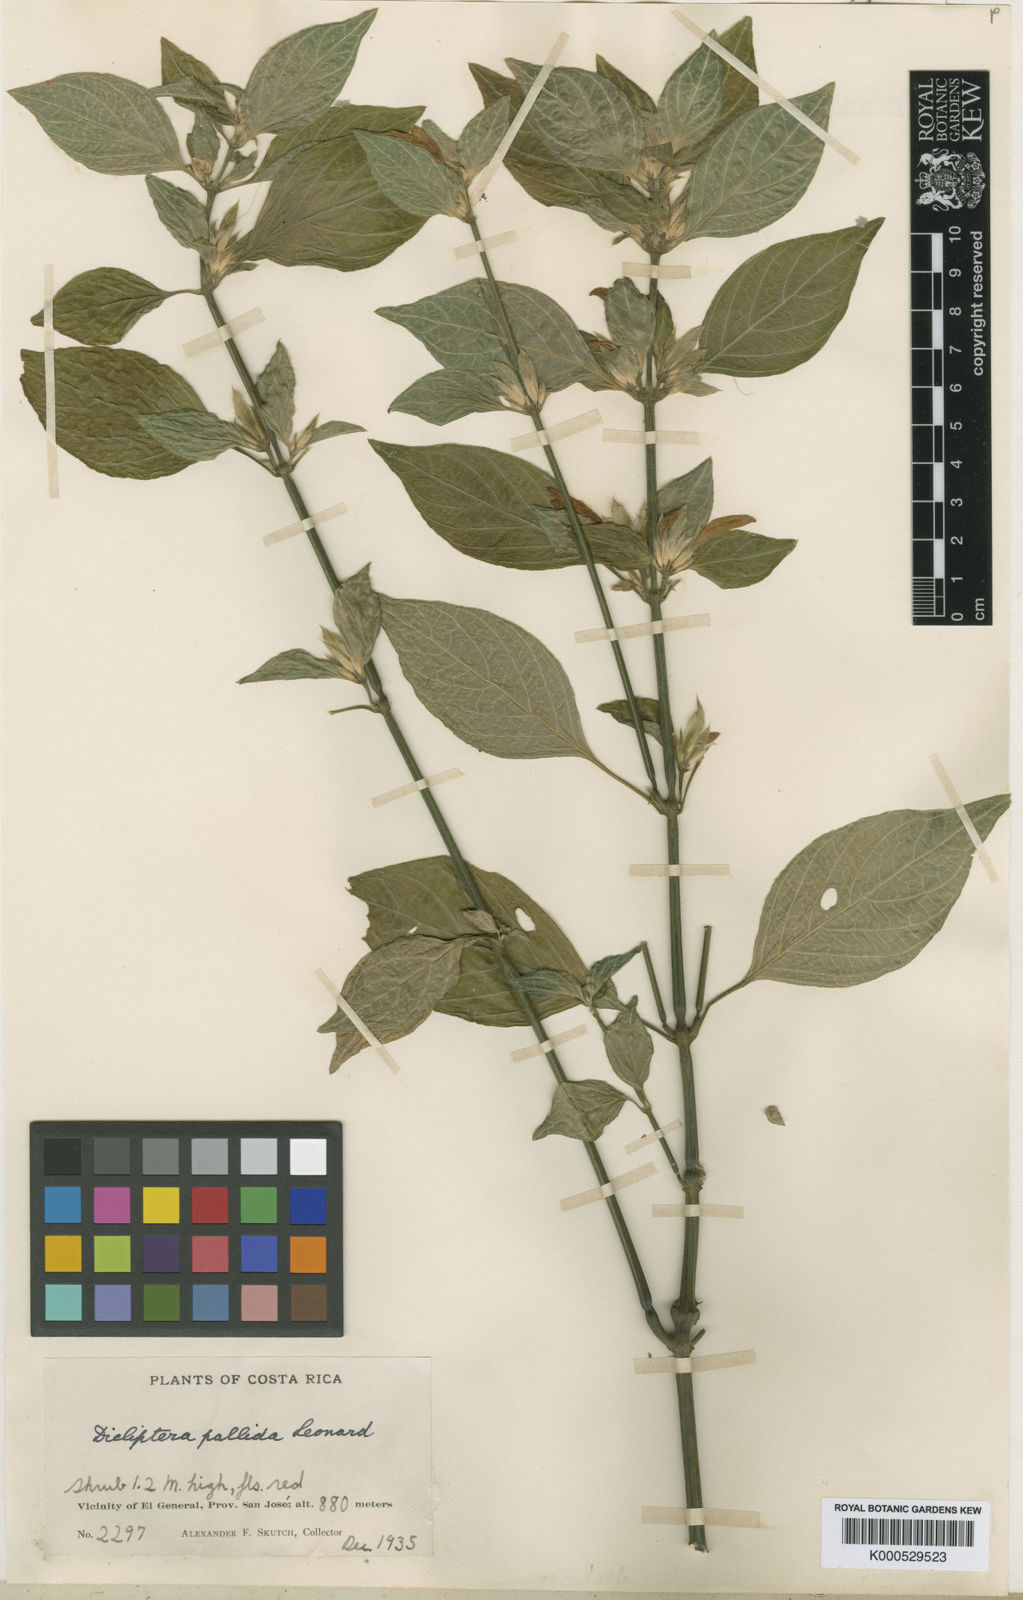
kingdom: Plantae
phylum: Tracheophyta
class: Magnoliopsida
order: Lamiales
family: Acanthaceae
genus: Dicliptera
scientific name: Dicliptera pallida
